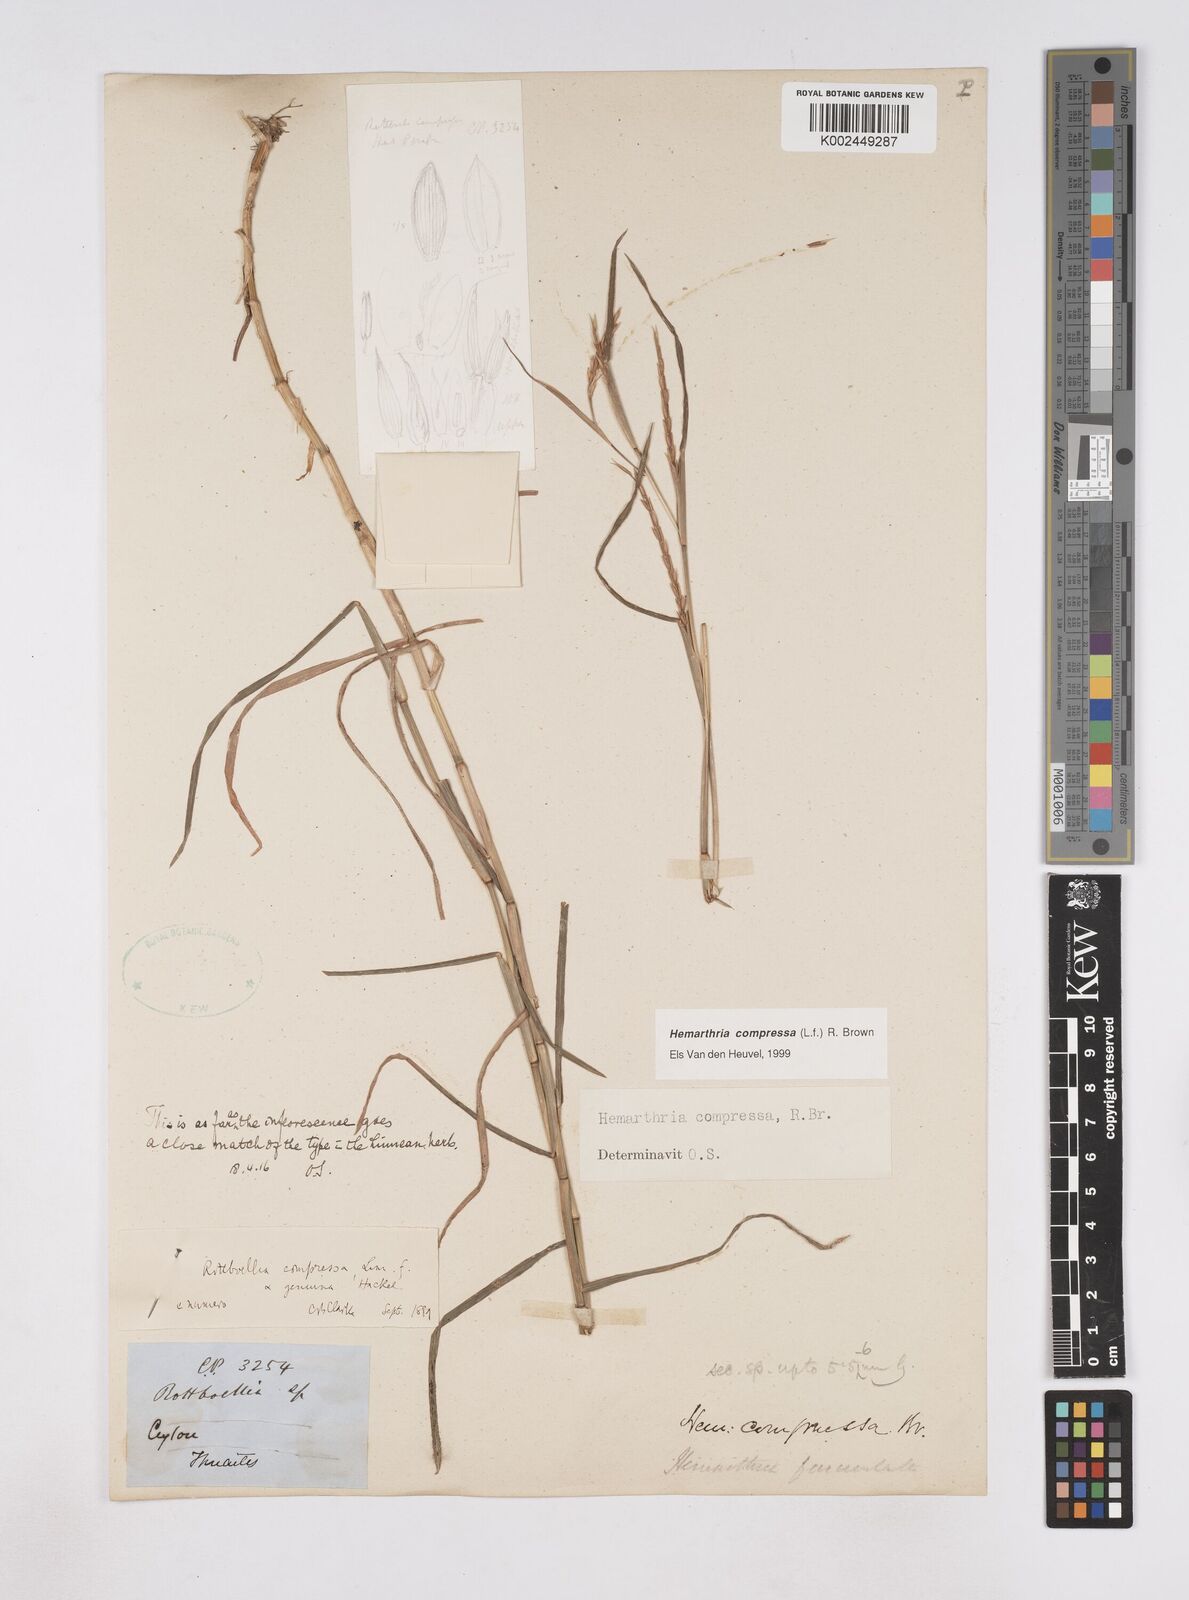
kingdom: Plantae
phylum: Tracheophyta
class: Liliopsida
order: Poales
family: Poaceae
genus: Hemarthria
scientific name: Hemarthria compressa
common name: Whip grass
